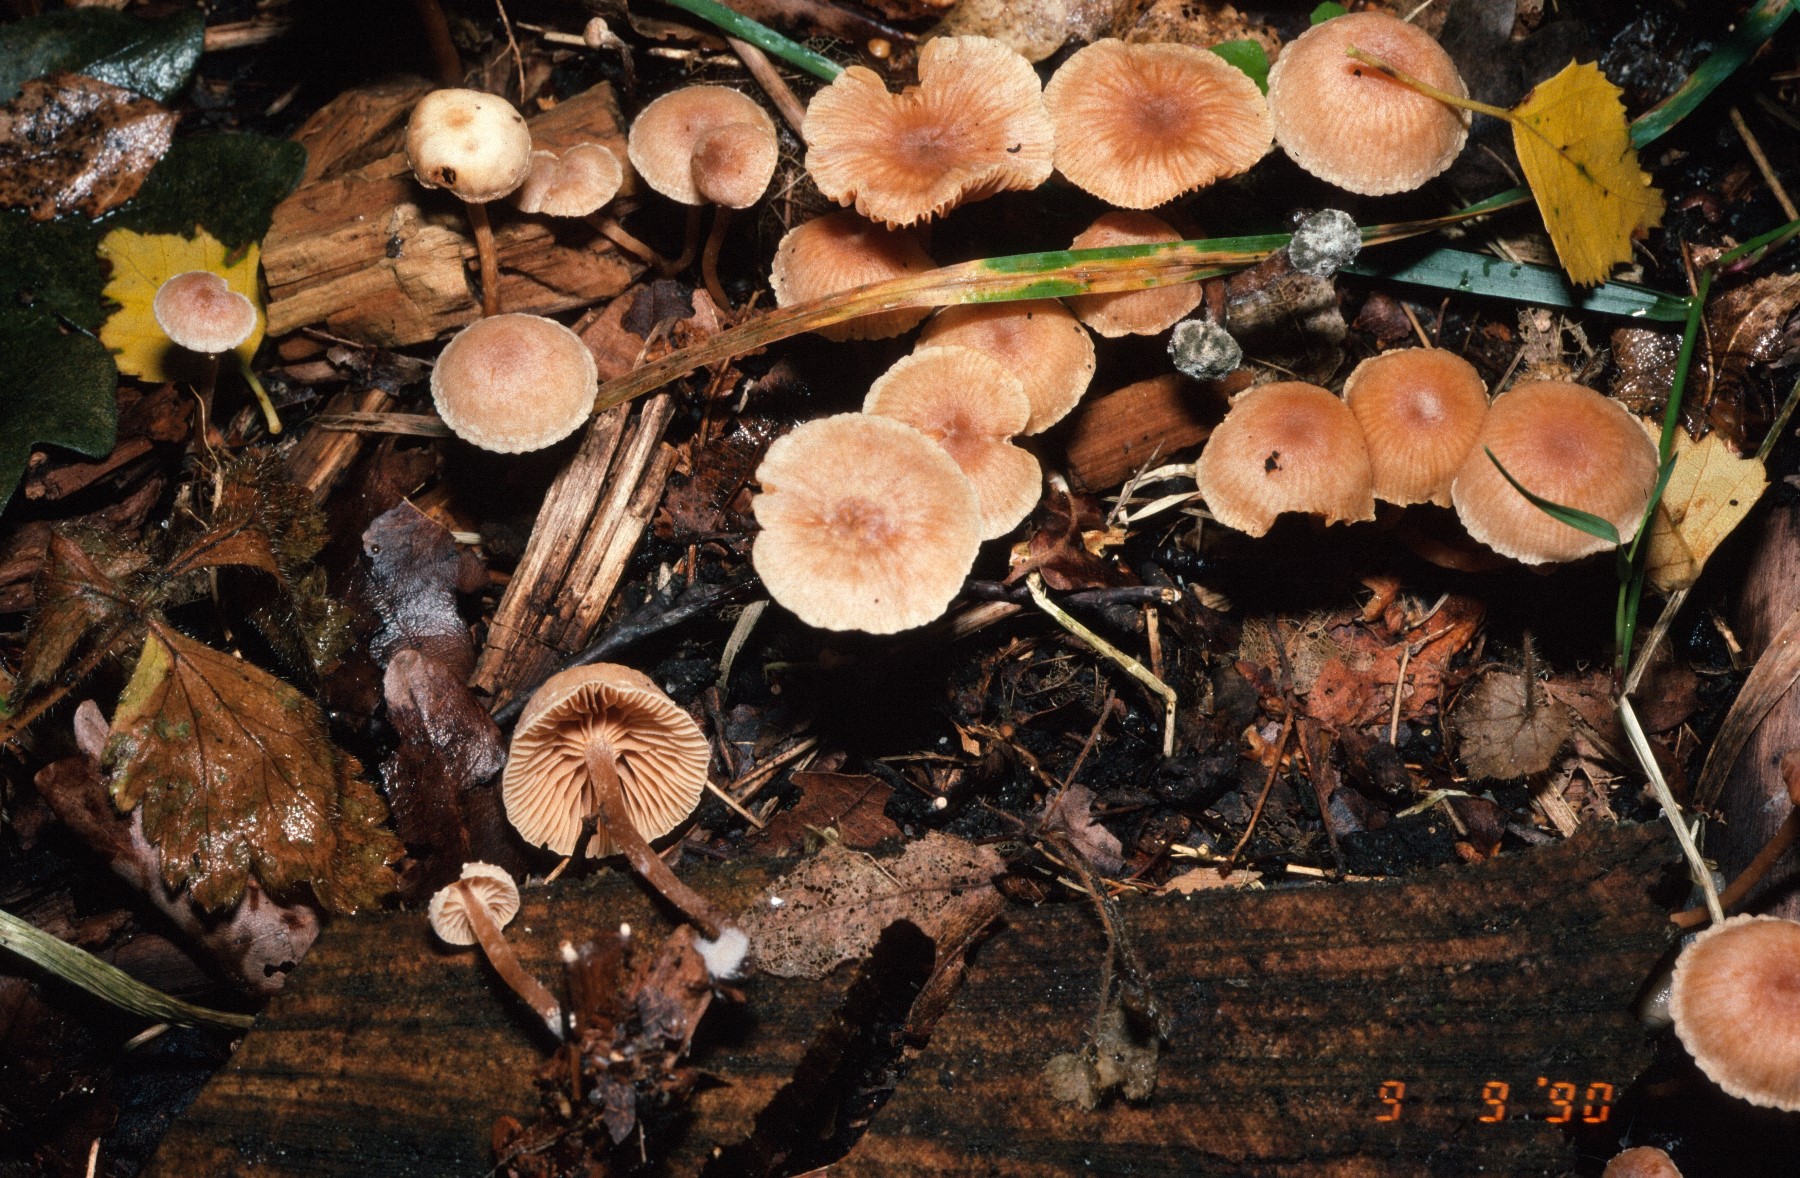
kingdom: Fungi
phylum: Basidiomycota
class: Agaricomycetes
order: Agaricales
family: Tubariaceae
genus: Tubaria
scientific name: Tubaria furfuracea
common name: kliddet fnughat
